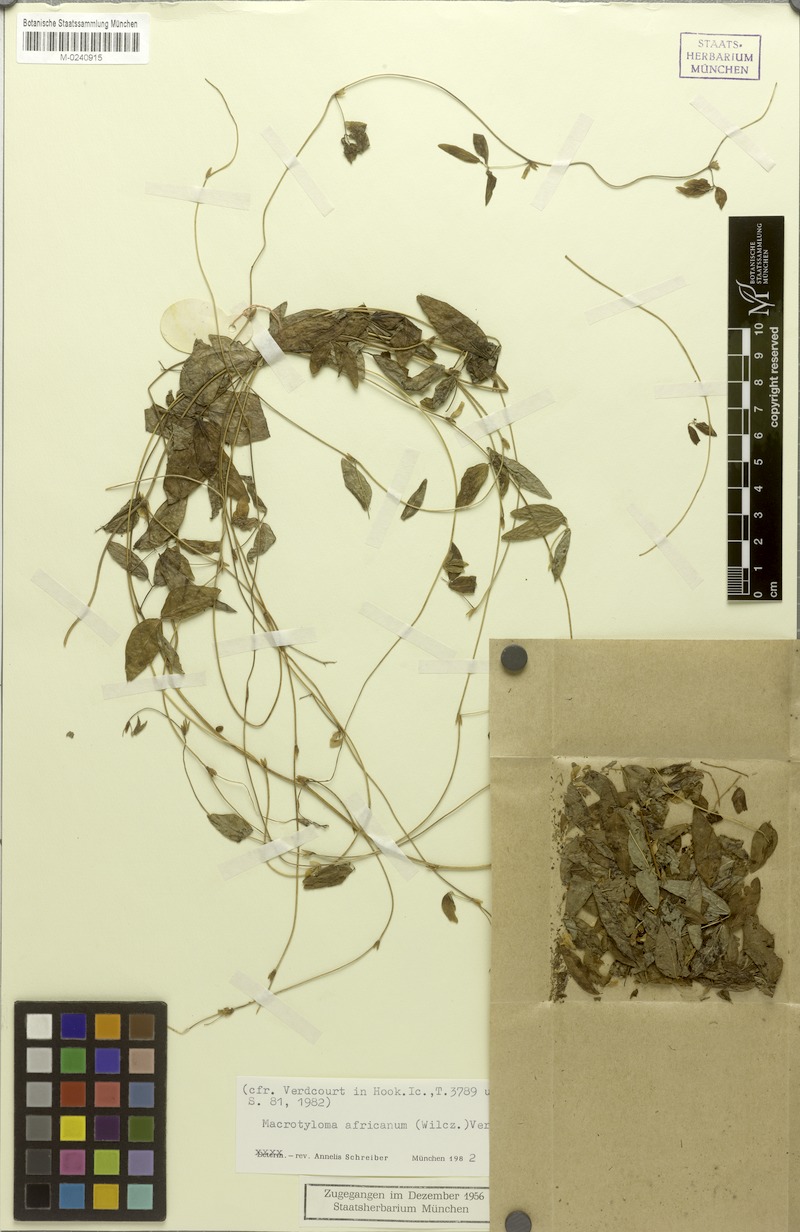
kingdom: Plantae
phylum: Tracheophyta
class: Magnoliopsida
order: Fabales
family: Fabaceae
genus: Macrotyloma
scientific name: Macrotyloma africanum
